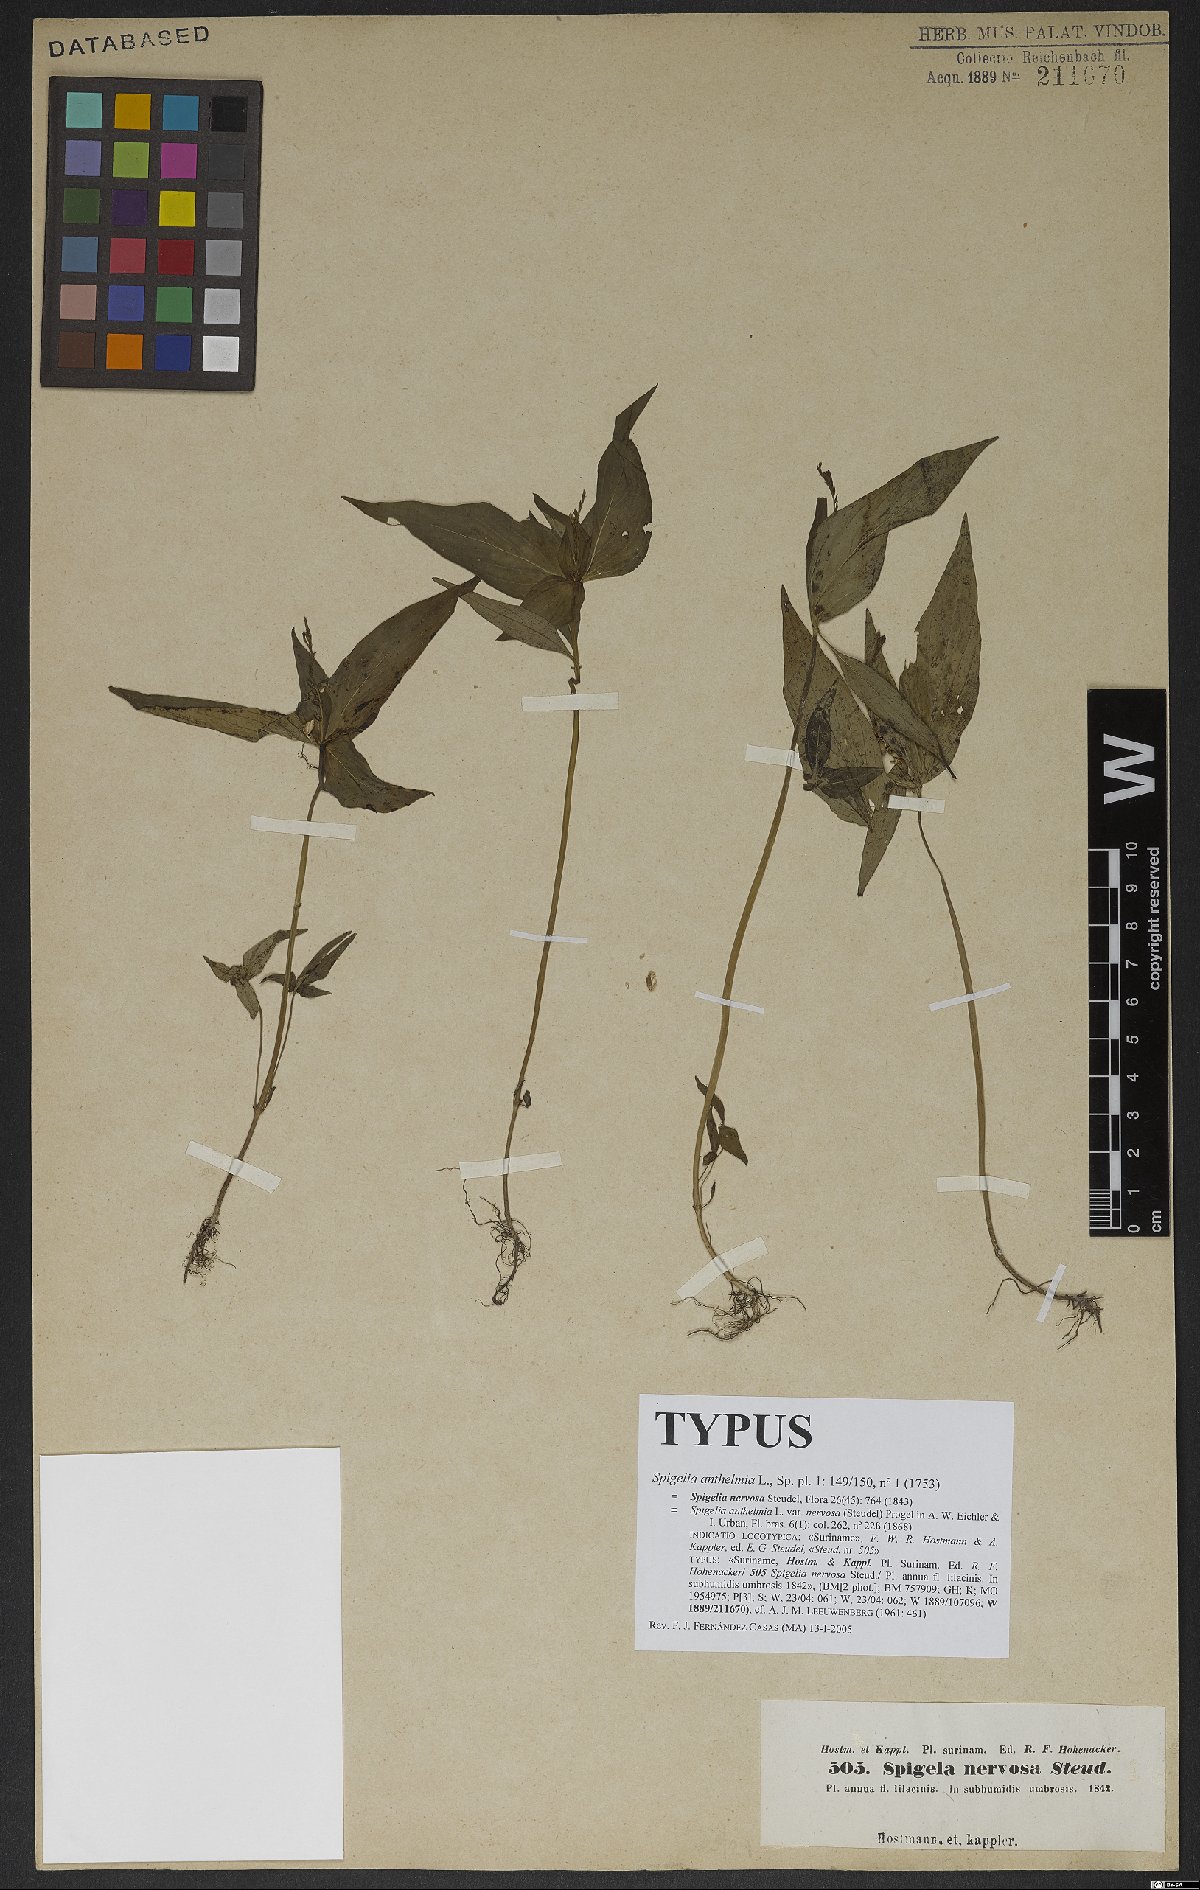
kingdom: Plantae
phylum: Tracheophyta
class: Magnoliopsida
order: Gentianales
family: Loganiaceae
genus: Spigelia
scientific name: Spigelia anthelmia
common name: West indian-pink
